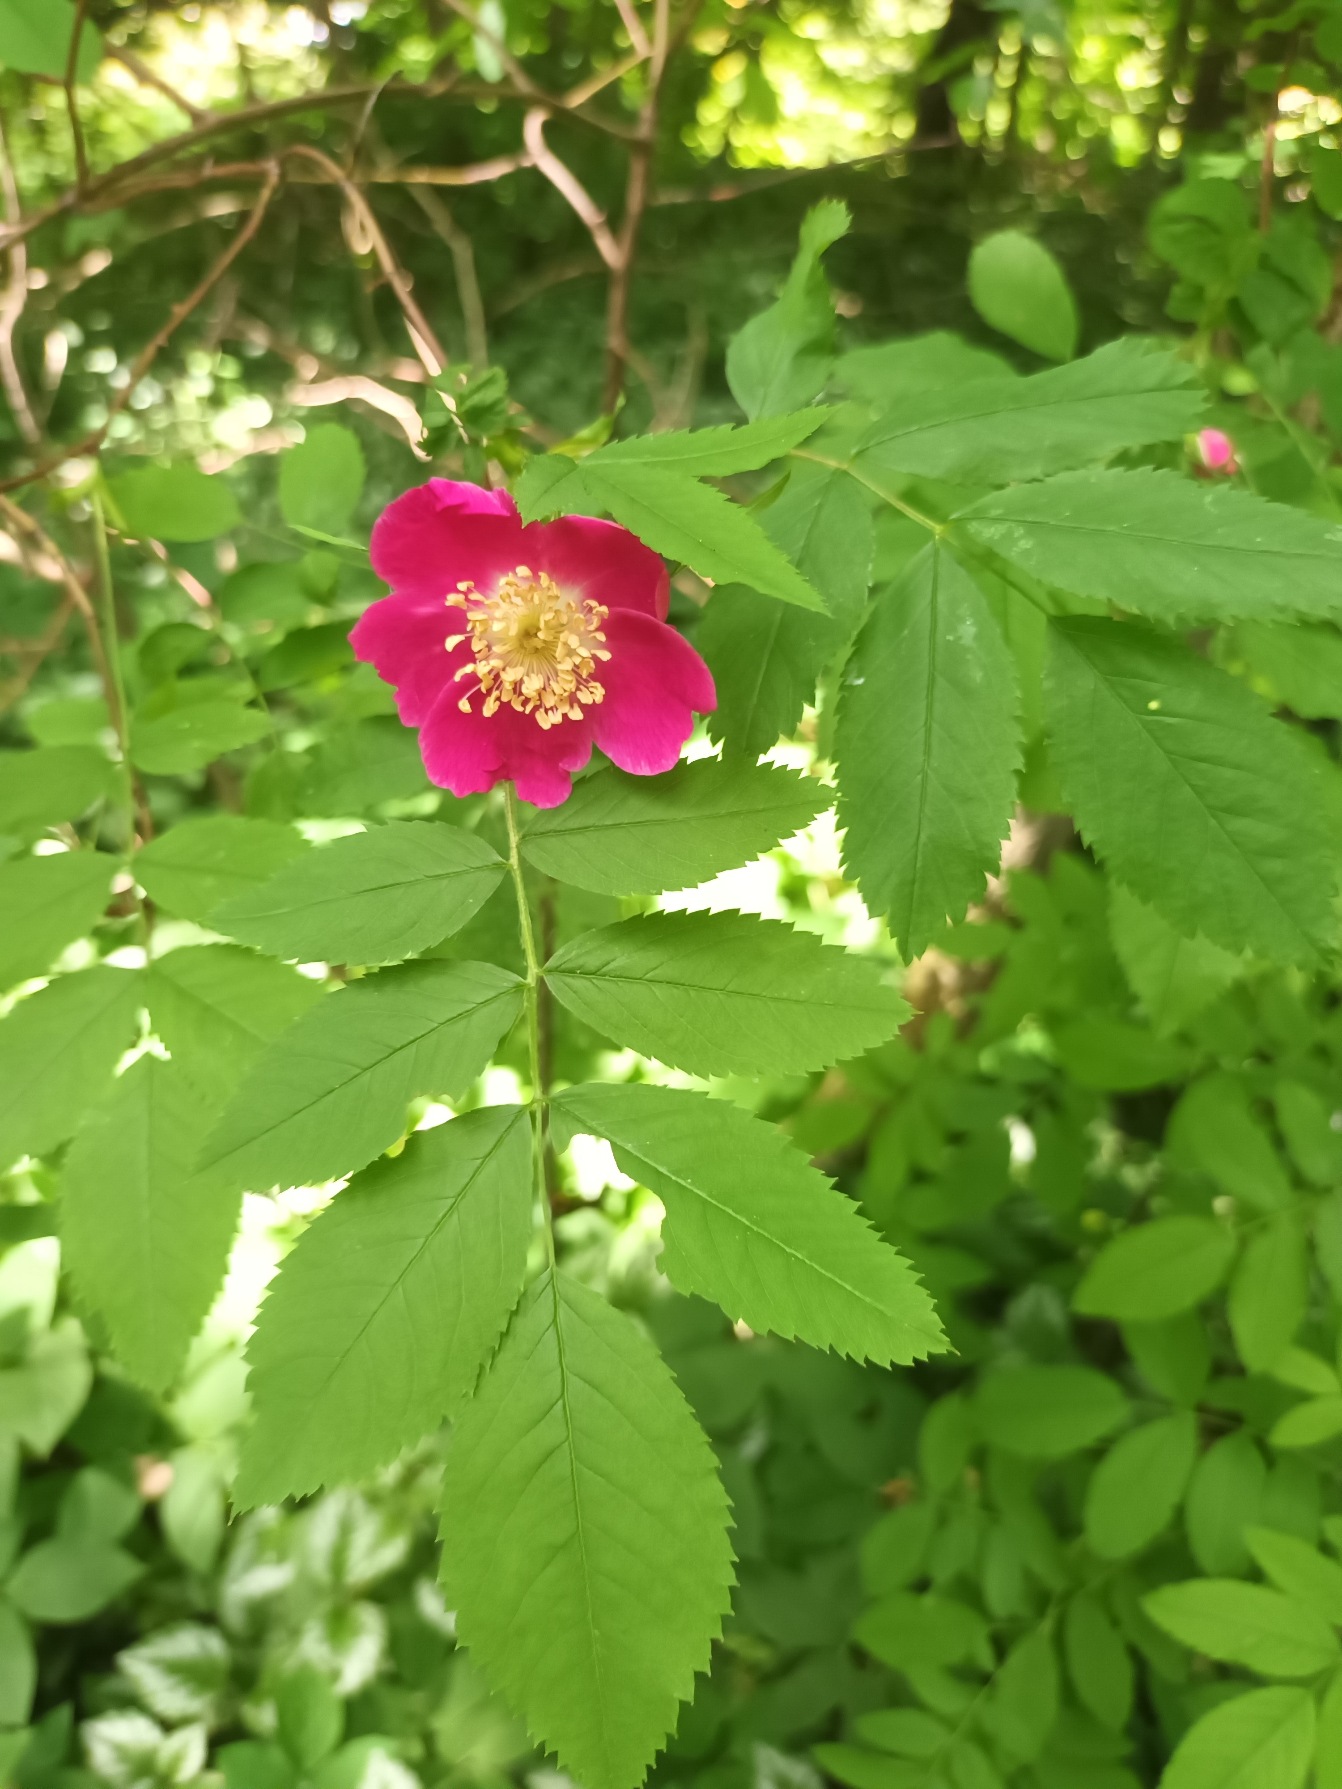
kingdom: Plantae
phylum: Tracheophyta
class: Magnoliopsida
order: Rosales
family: Rosaceae
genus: Rosa
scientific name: Rosa majalis
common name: Maj-rose
